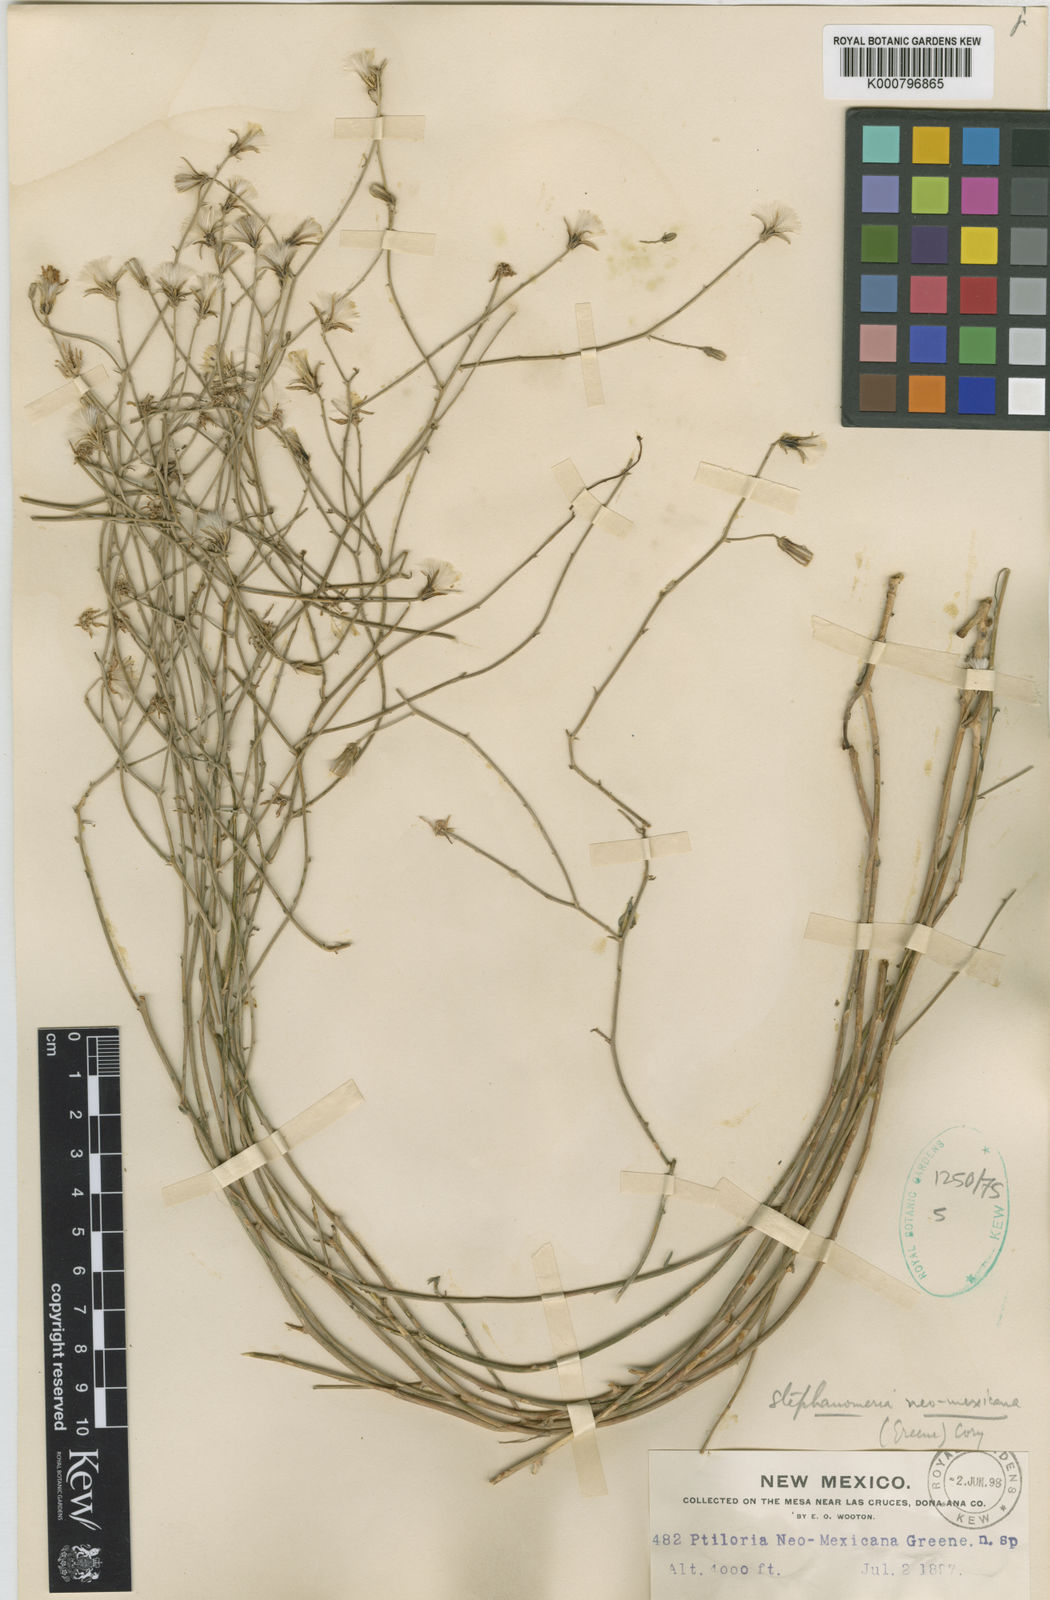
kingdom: Plantae
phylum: Tracheophyta
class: Magnoliopsida
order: Asterales
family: Asteraceae
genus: Rafinesquia
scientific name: Rafinesquia neomexicana
